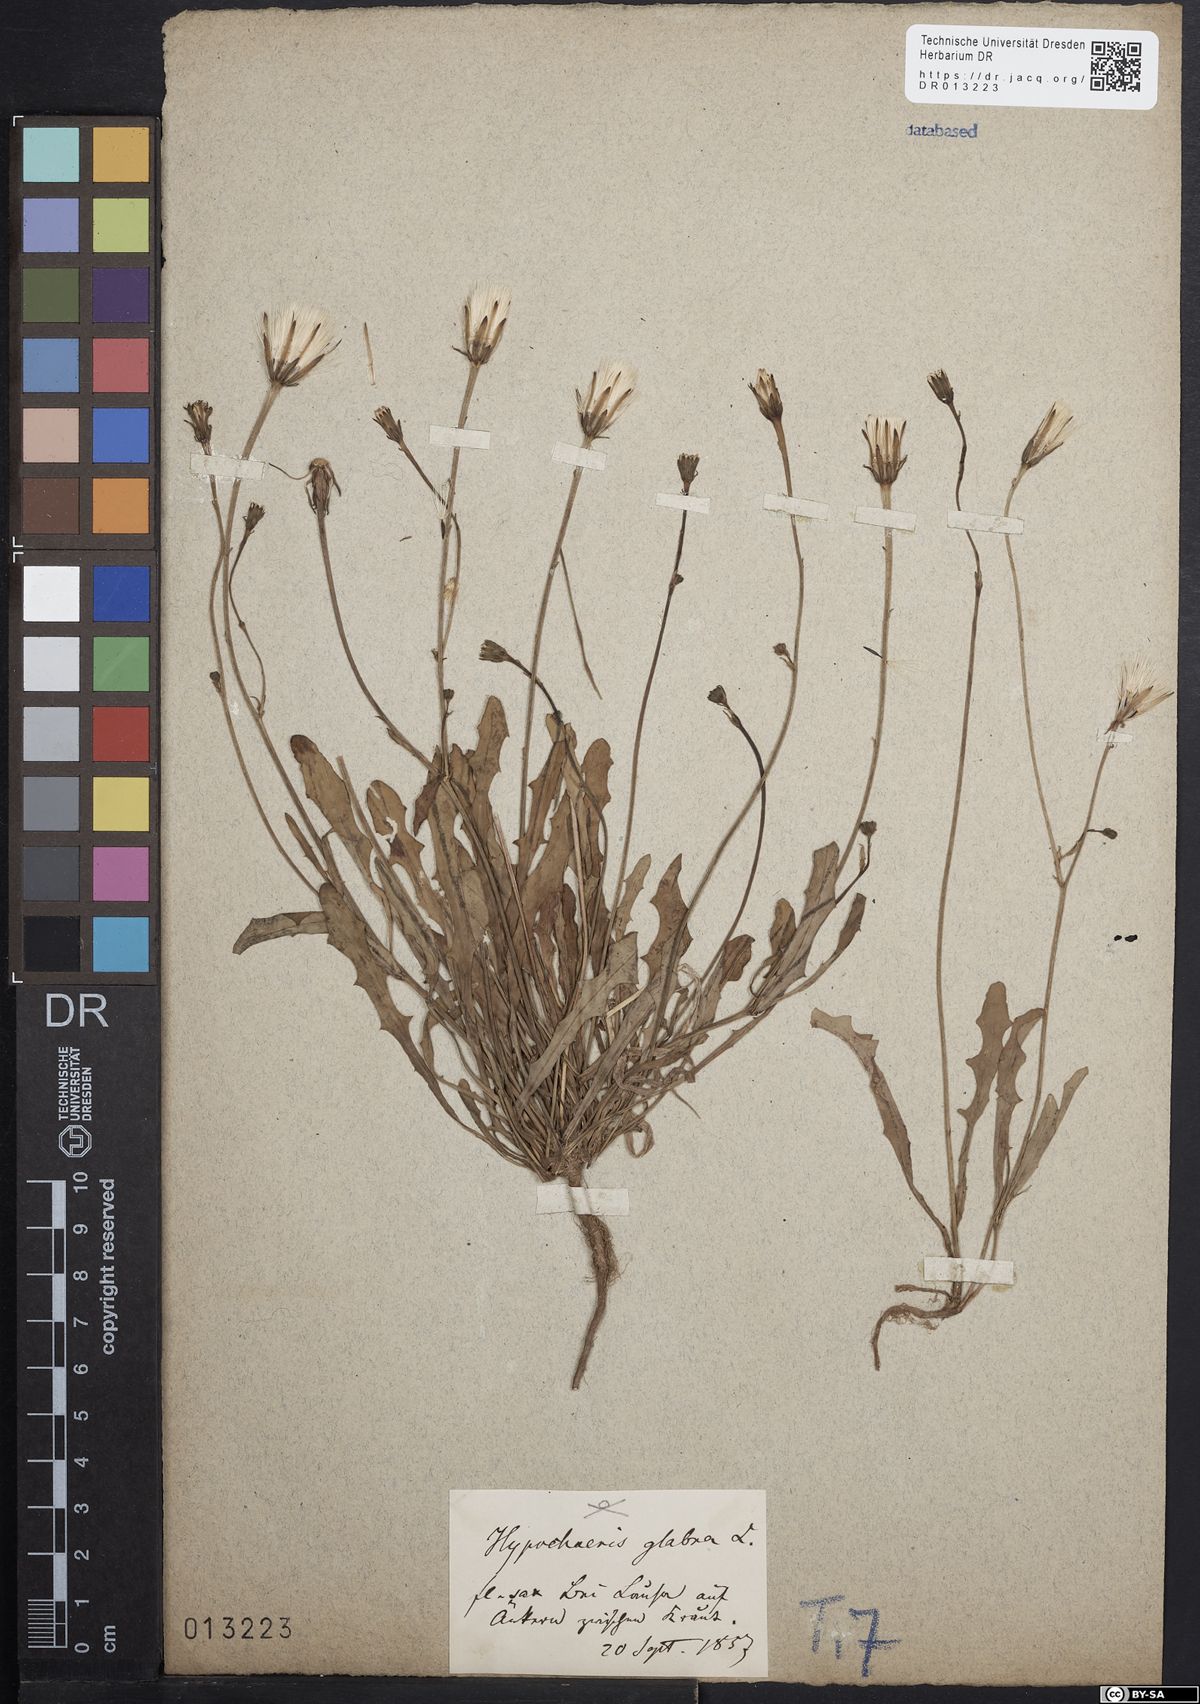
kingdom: Plantae
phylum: Tracheophyta
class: Magnoliopsida
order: Asterales
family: Asteraceae
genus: Hypochaeris
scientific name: Hypochaeris glabra
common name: Smooth catsear
